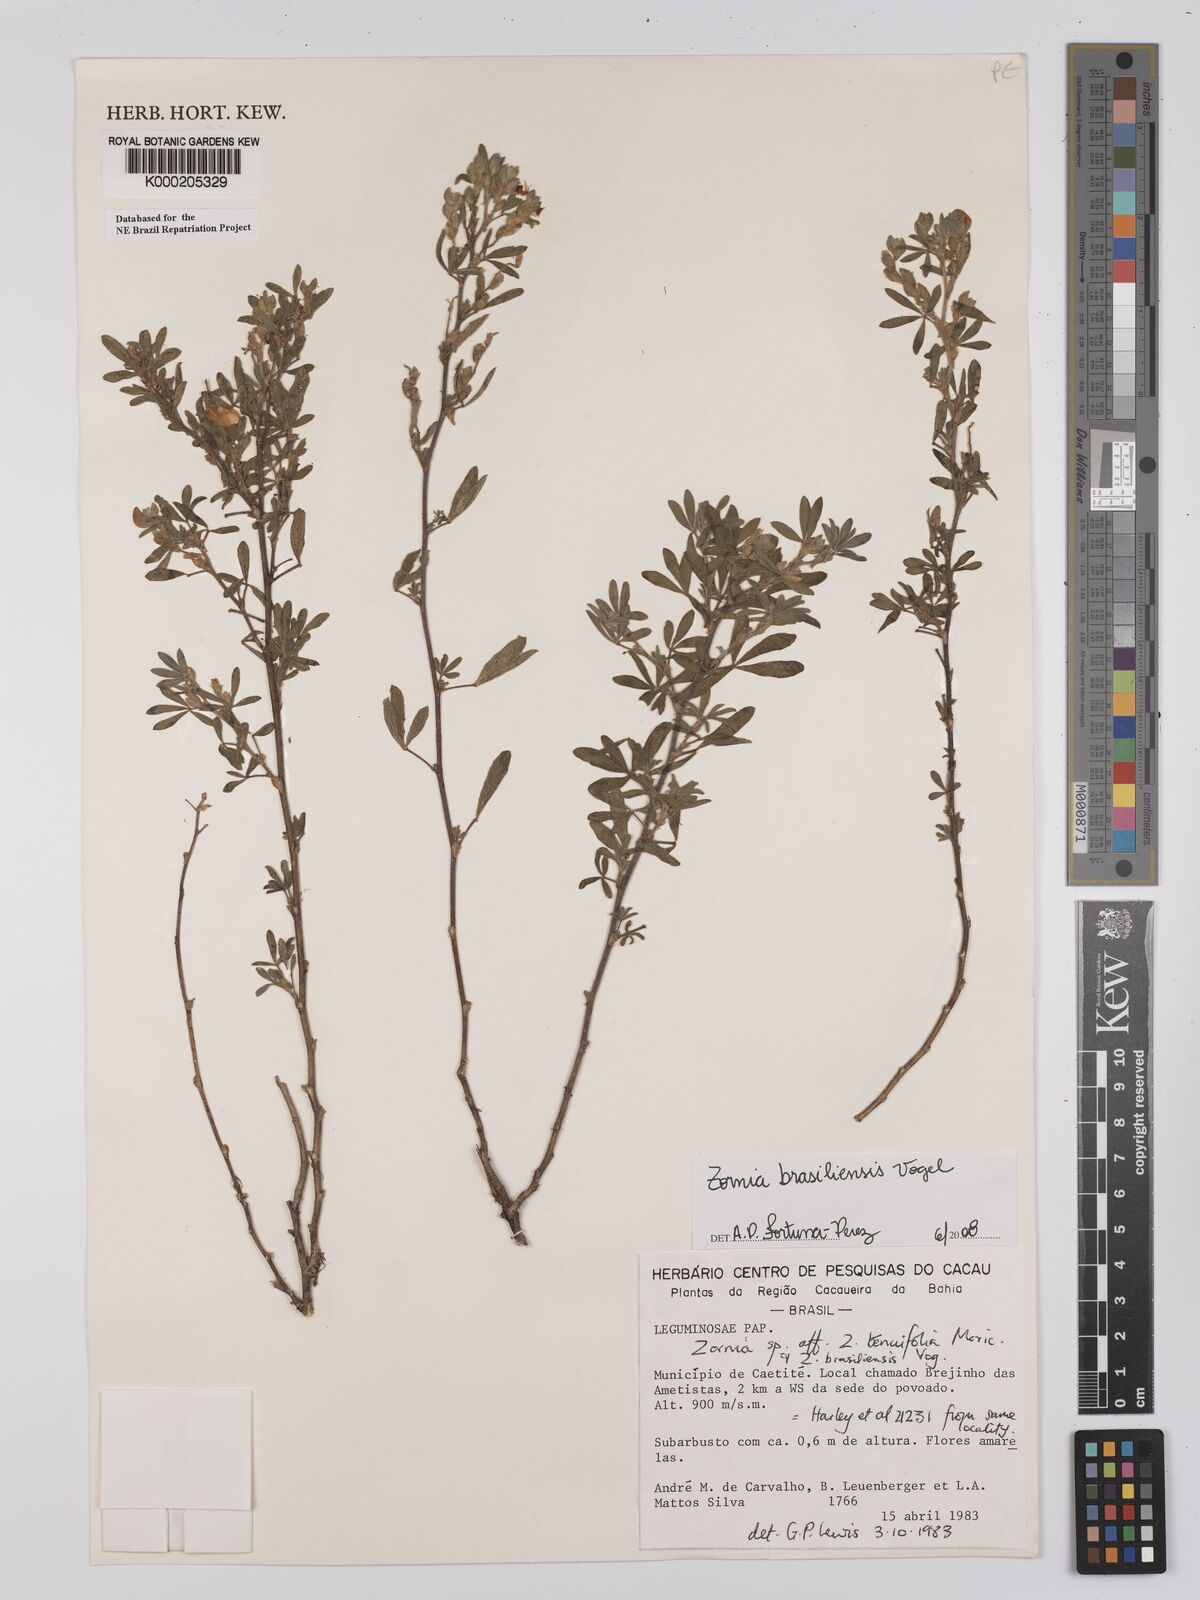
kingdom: Plantae
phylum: Tracheophyta
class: Magnoliopsida
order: Fabales
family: Fabaceae
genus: Zornia
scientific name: Zornia brasiliensis
